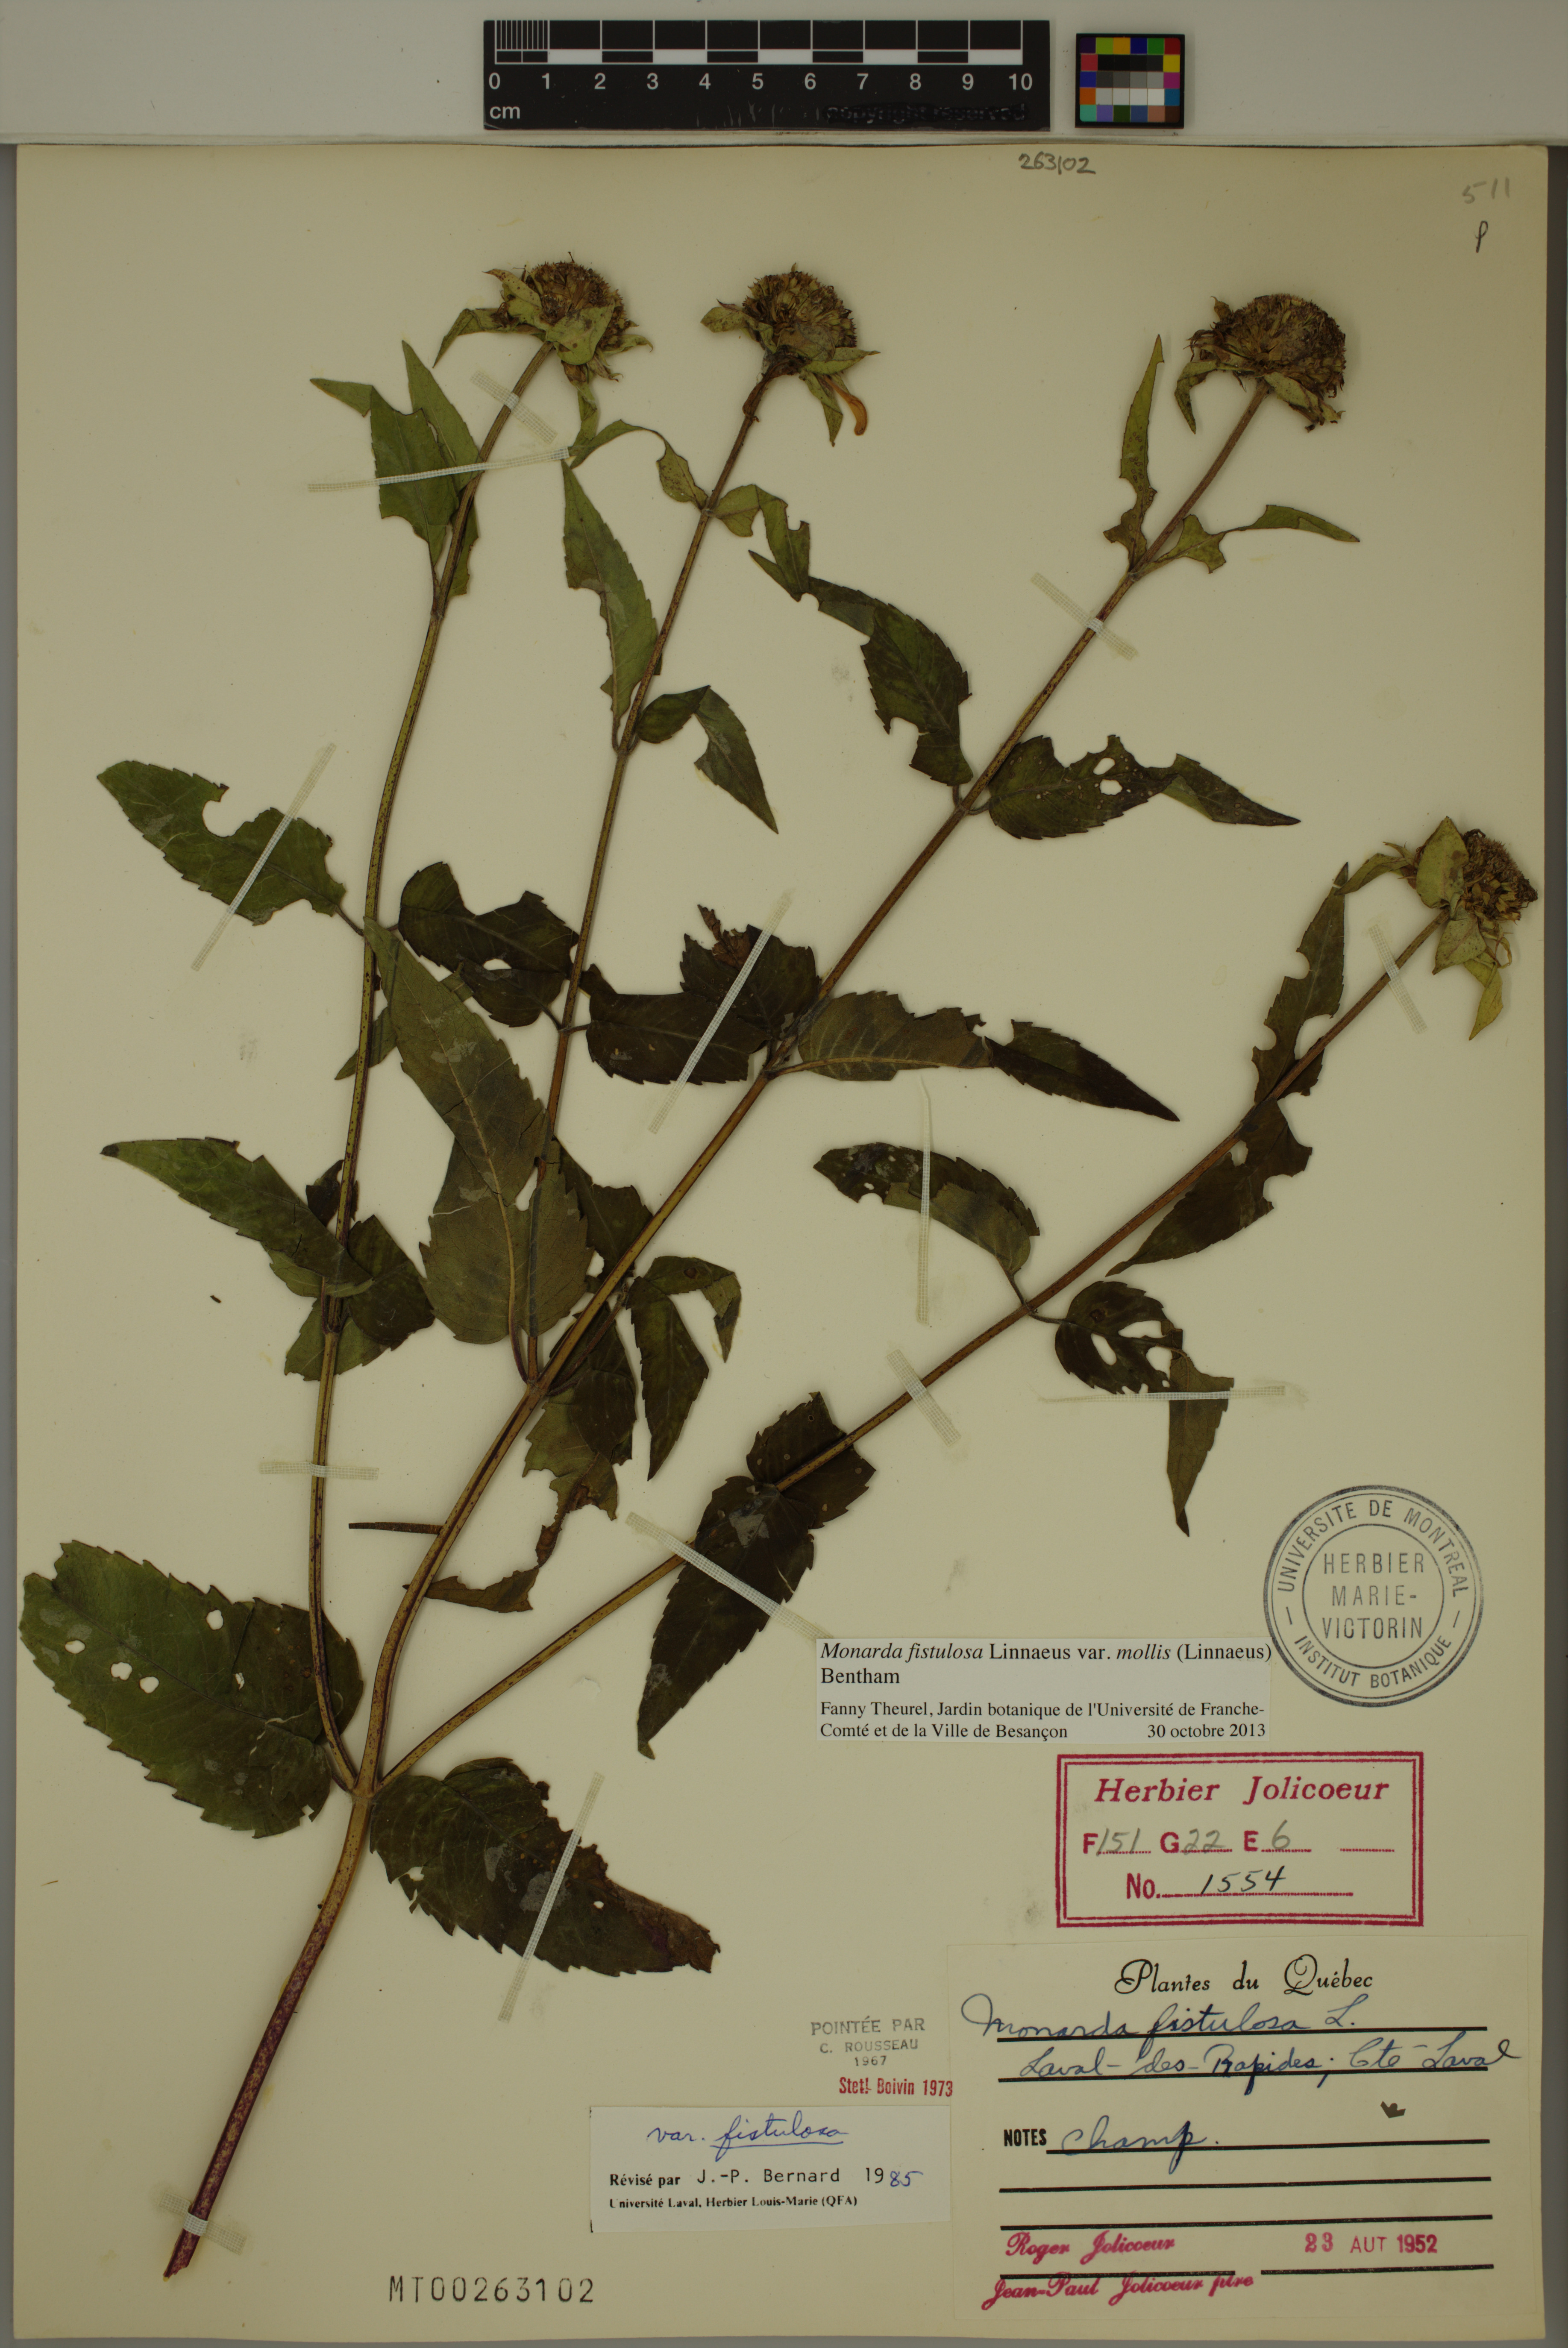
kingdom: Plantae
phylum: Tracheophyta
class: Magnoliopsida
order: Lamiales
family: Lamiaceae
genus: Monarda
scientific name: Monarda fistulosa
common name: Purple beebalm
